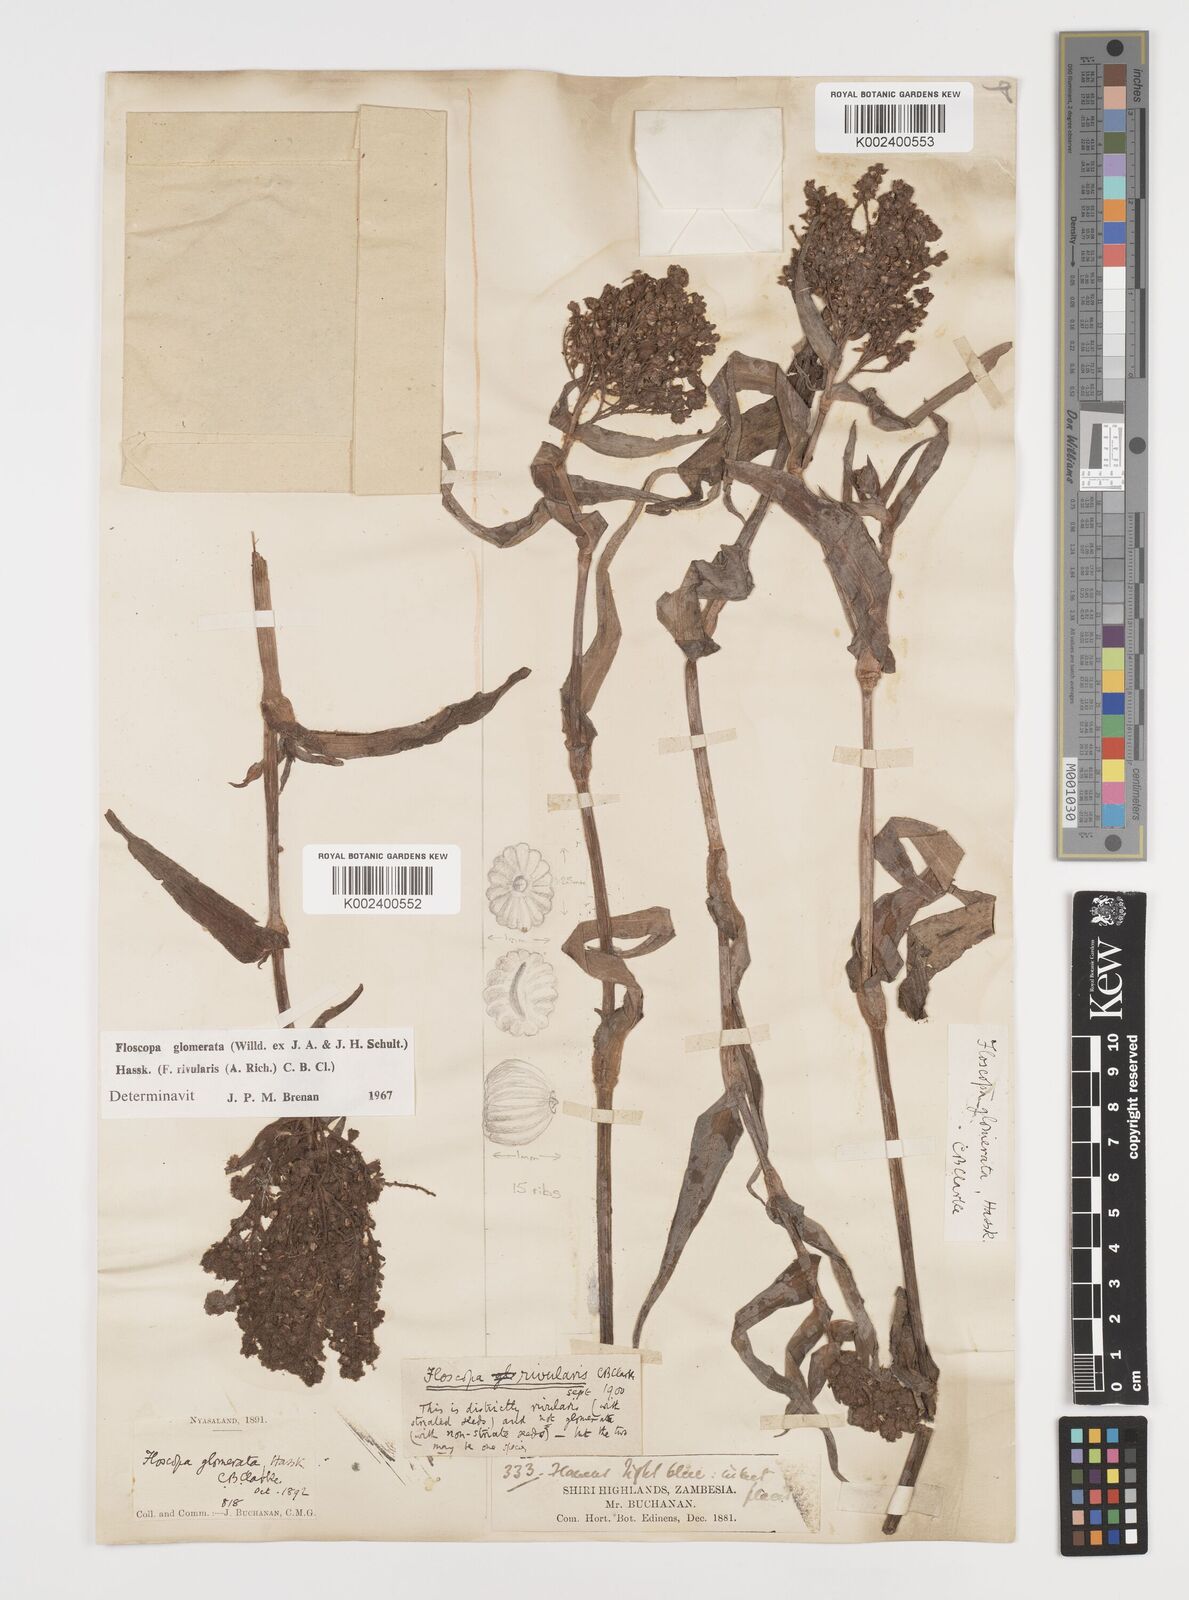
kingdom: Plantae
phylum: Tracheophyta
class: Liliopsida
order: Commelinales
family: Commelinaceae
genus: Floscopa
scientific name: Floscopa glomerata
